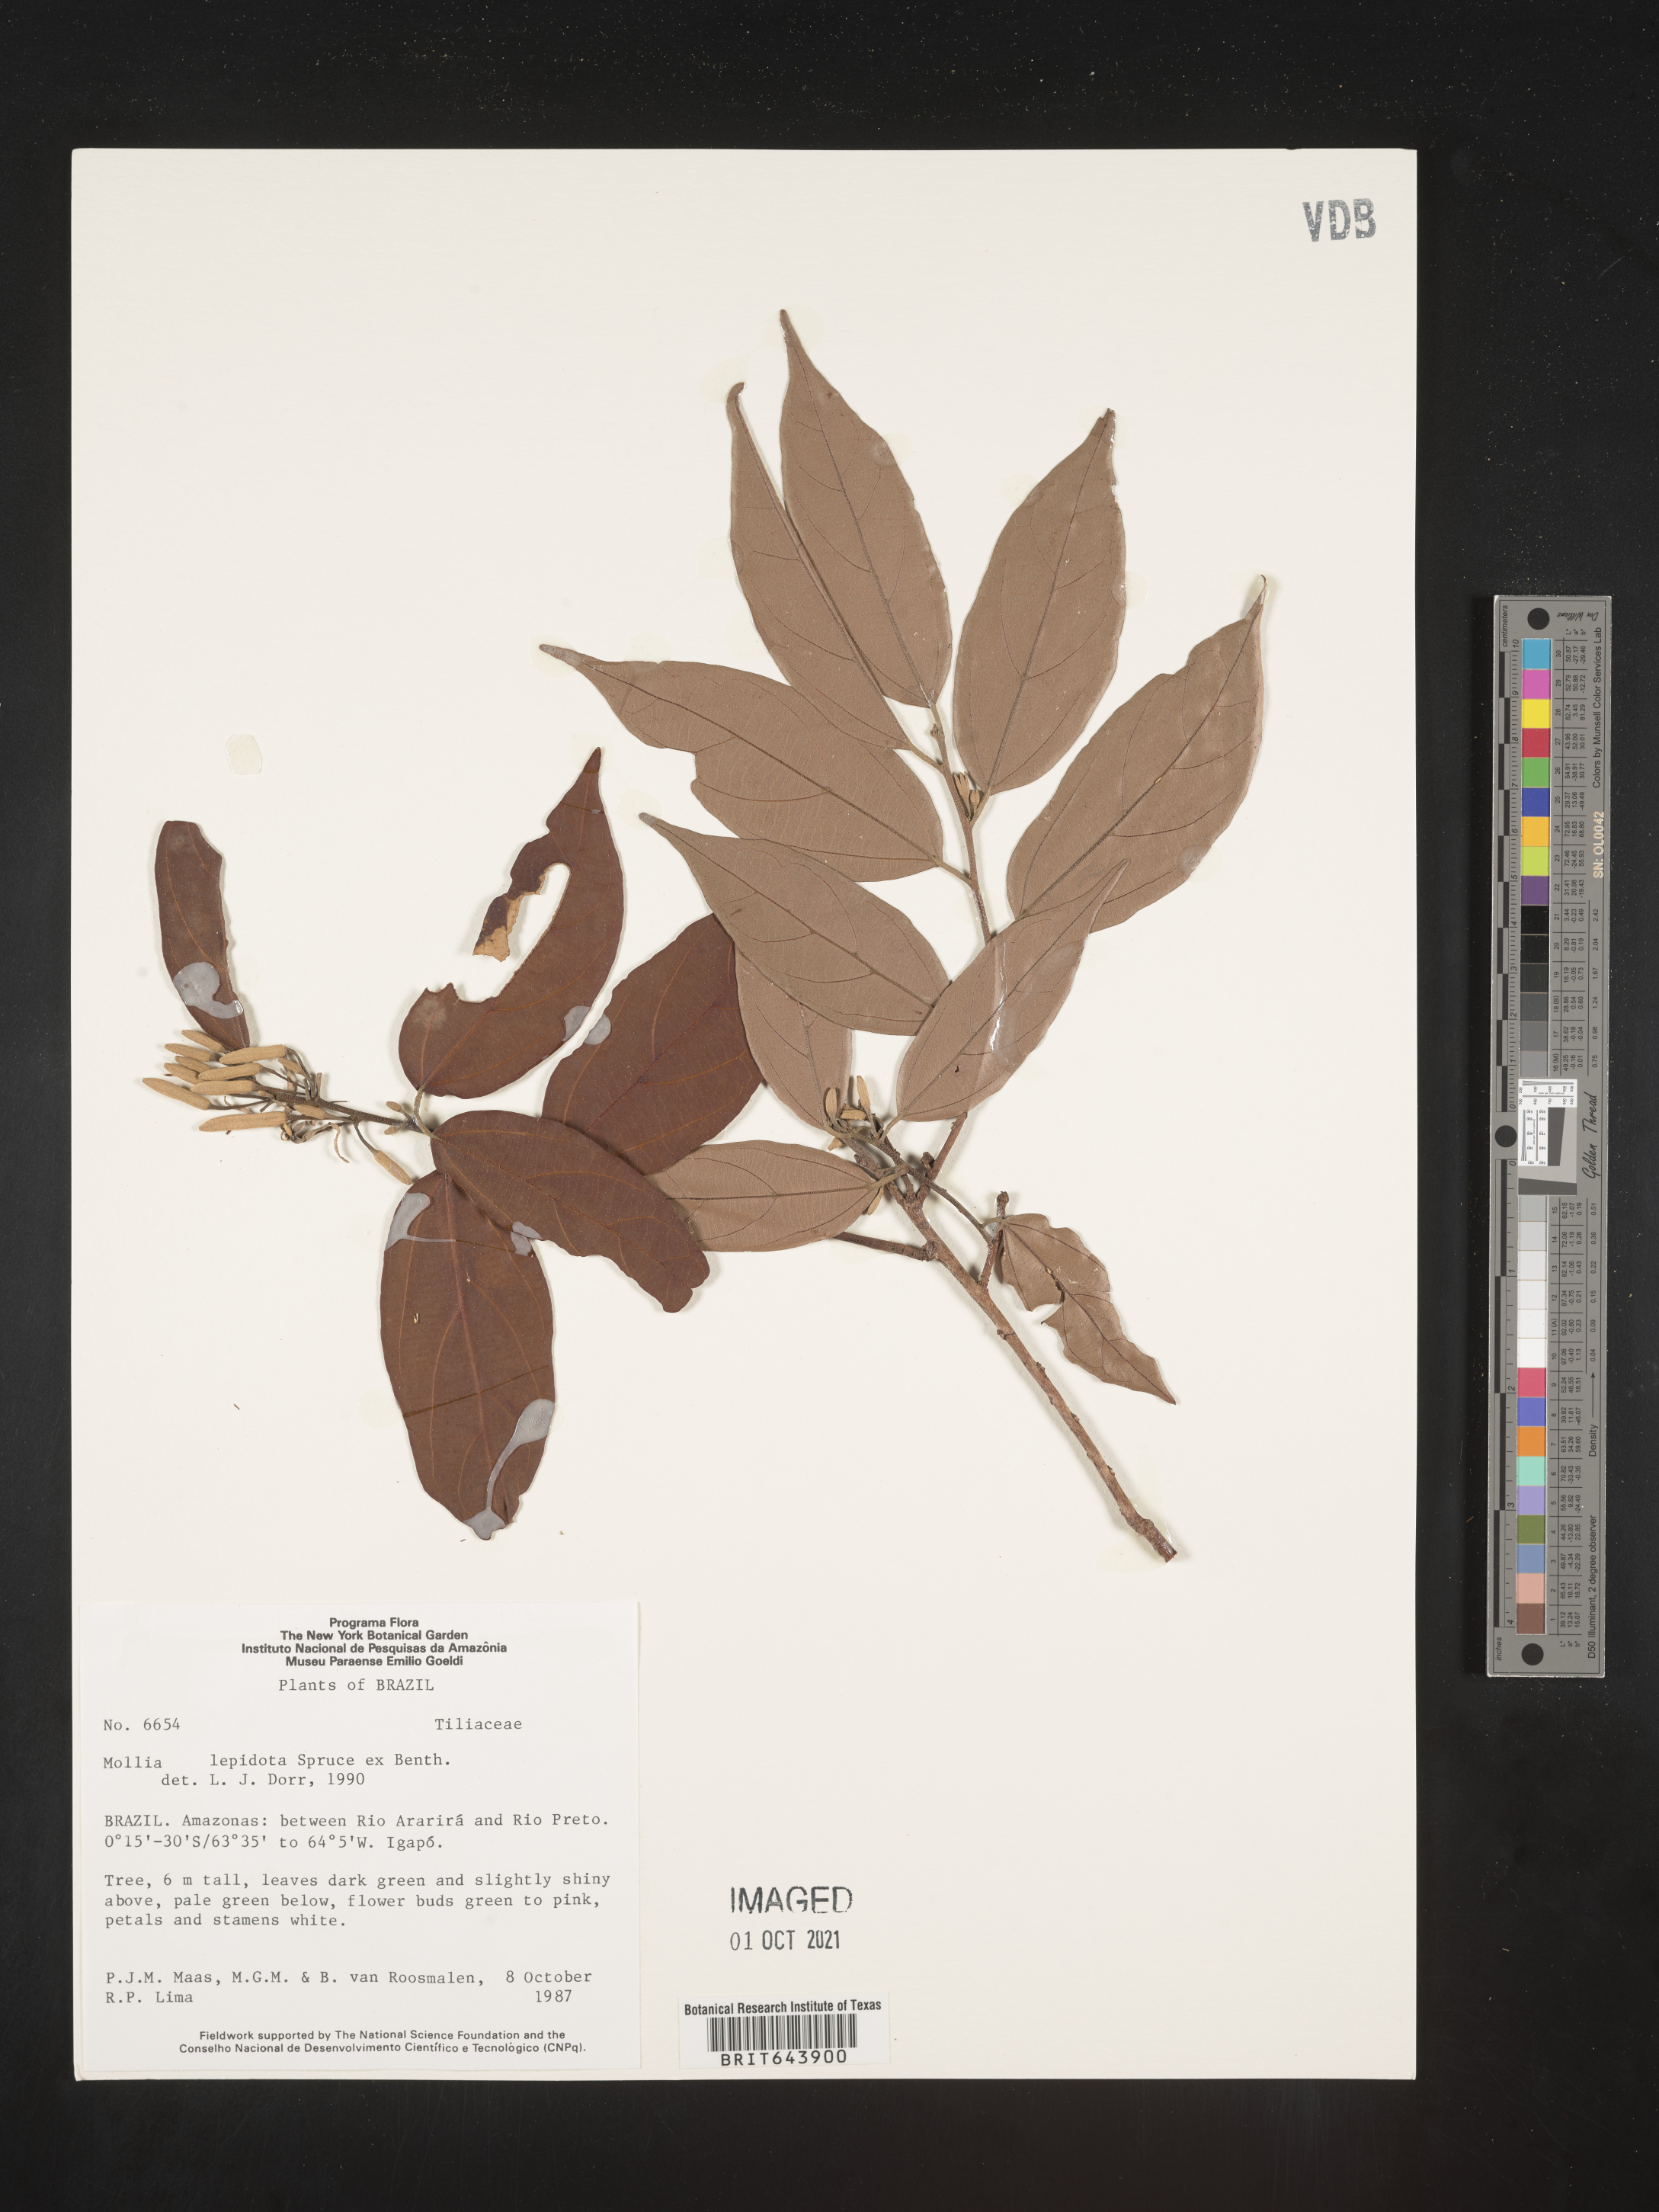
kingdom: Plantae
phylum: Tracheophyta
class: Magnoliopsida
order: Malvales
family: Malvaceae
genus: Mollia
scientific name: Mollia
